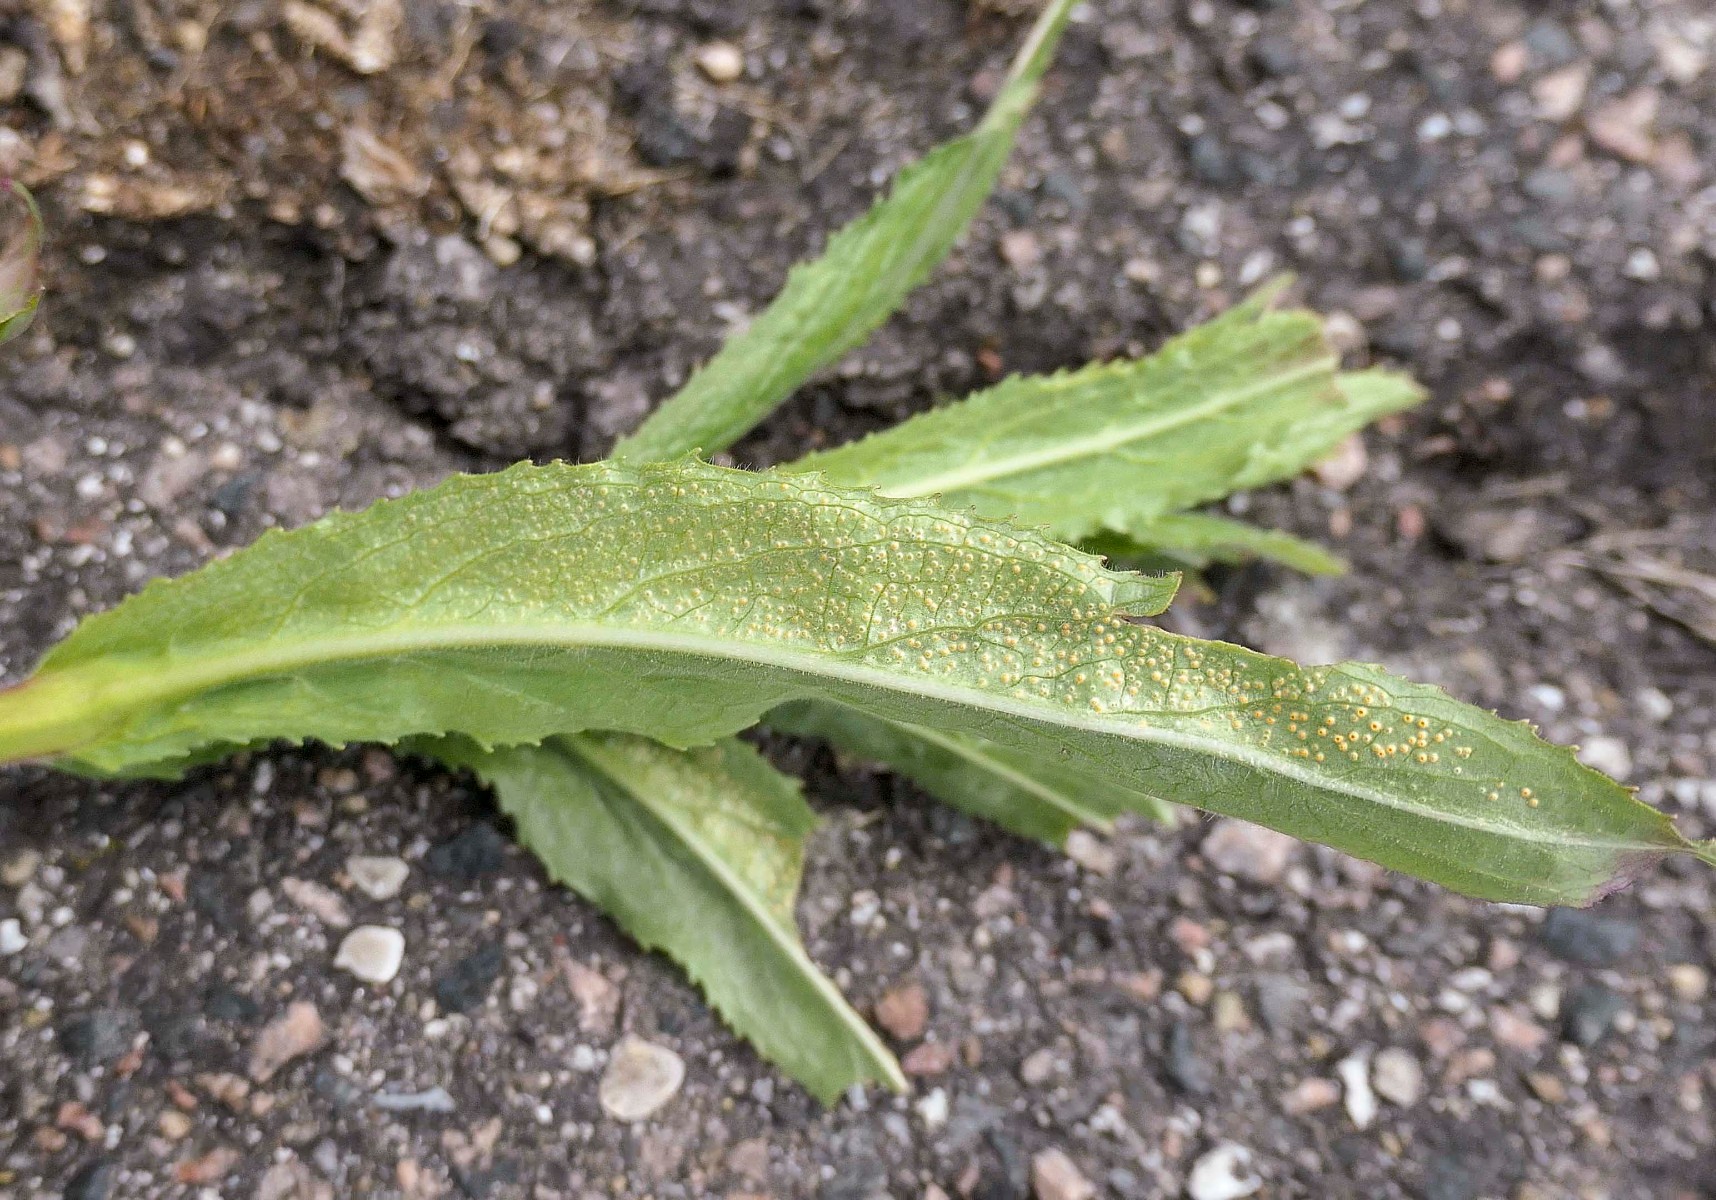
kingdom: Fungi
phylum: Basidiomycota
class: Pucciniomycetes
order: Pucciniales
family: Pucciniaceae
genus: Puccinia
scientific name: Puccinia pulverulenta
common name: dueurt-tvecellerust
